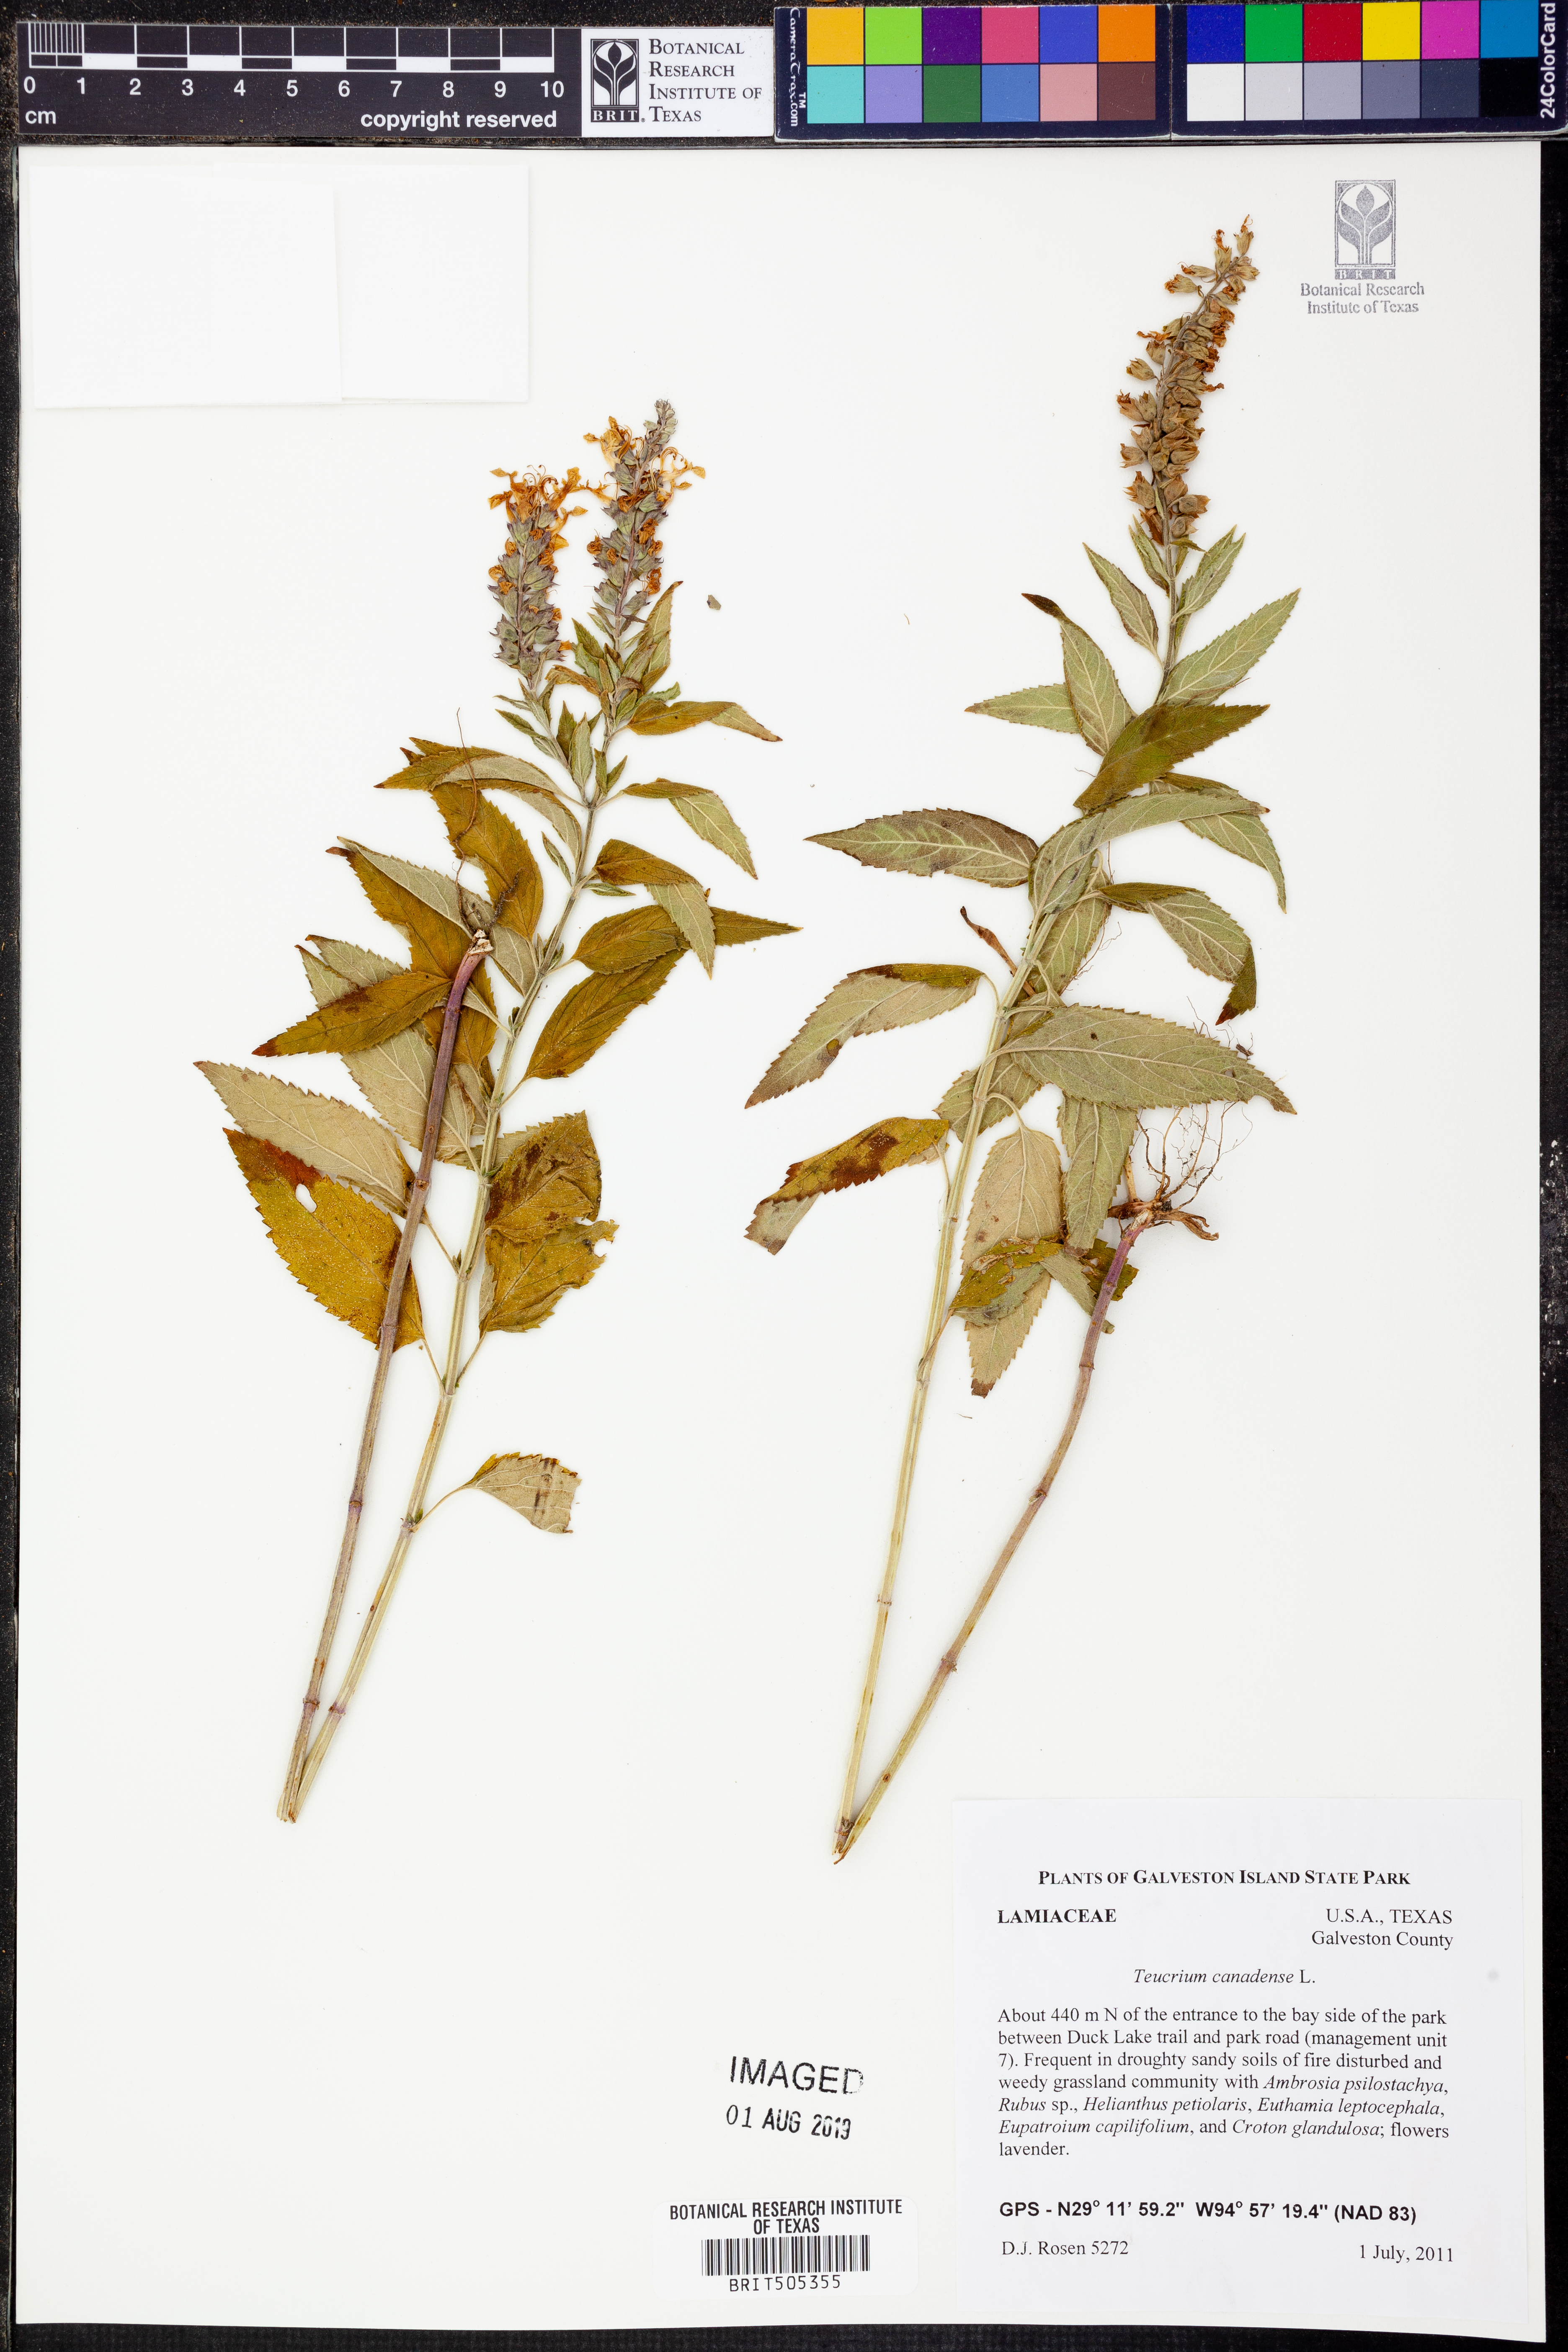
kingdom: Plantae
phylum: Tracheophyta
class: Magnoliopsida
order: Lamiales
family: Lamiaceae
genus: Teucrium
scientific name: Teucrium canadense
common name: American germander
